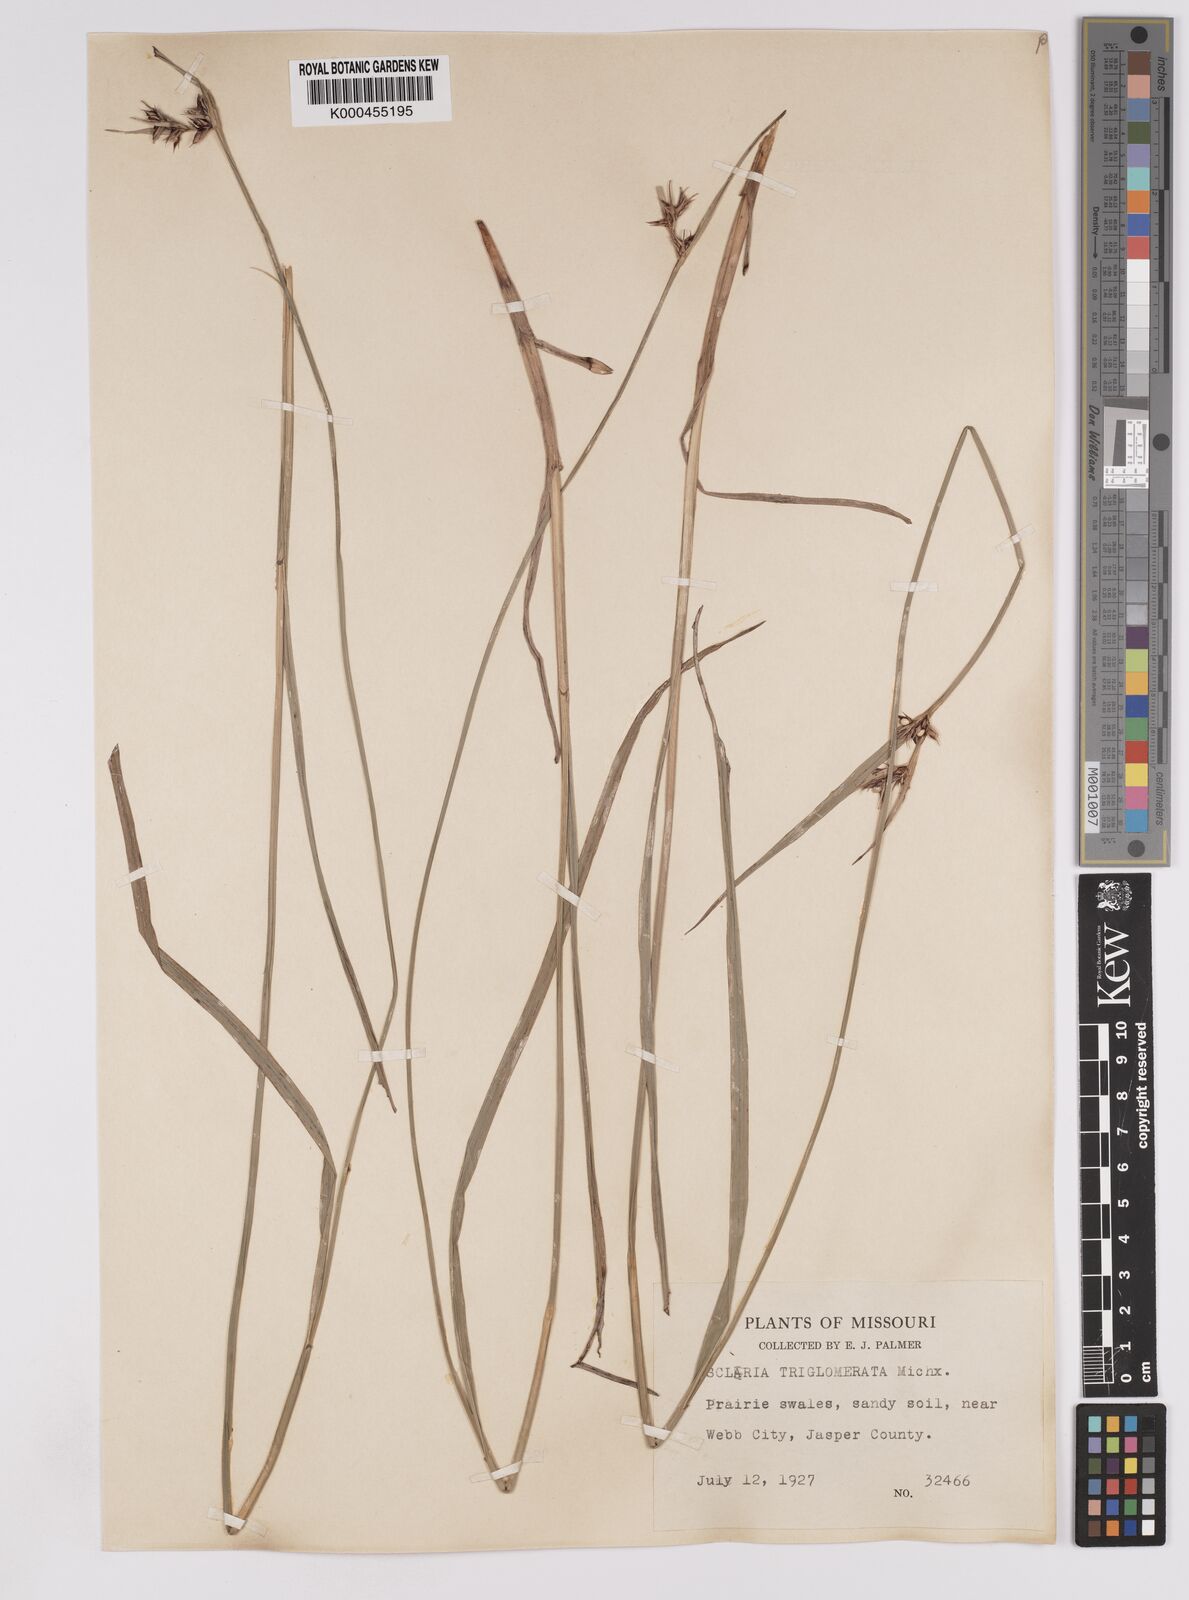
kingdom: Plantae
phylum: Tracheophyta
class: Liliopsida
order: Poales
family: Cyperaceae
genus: Scleria
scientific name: Scleria
